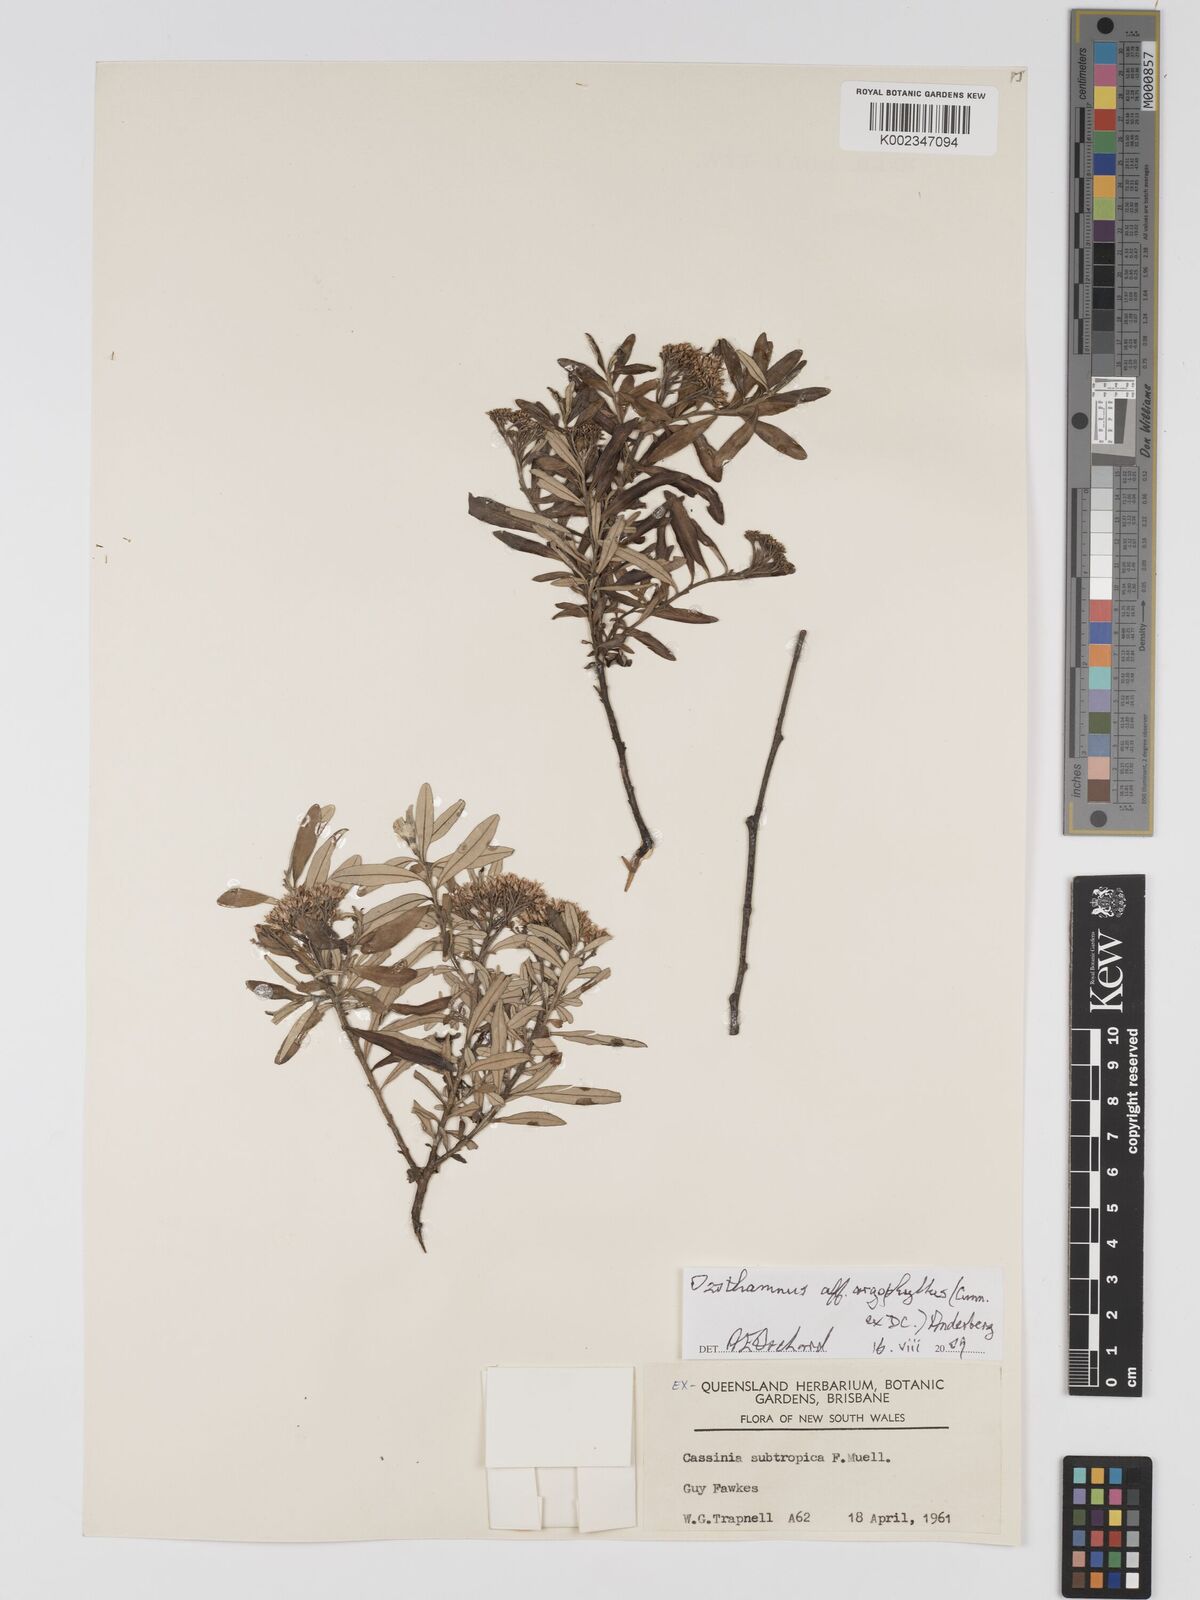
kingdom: Plantae
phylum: Tracheophyta
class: Magnoliopsida
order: Asterales
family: Asteraceae
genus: Ozothamnus
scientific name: Ozothamnus argophyllus
